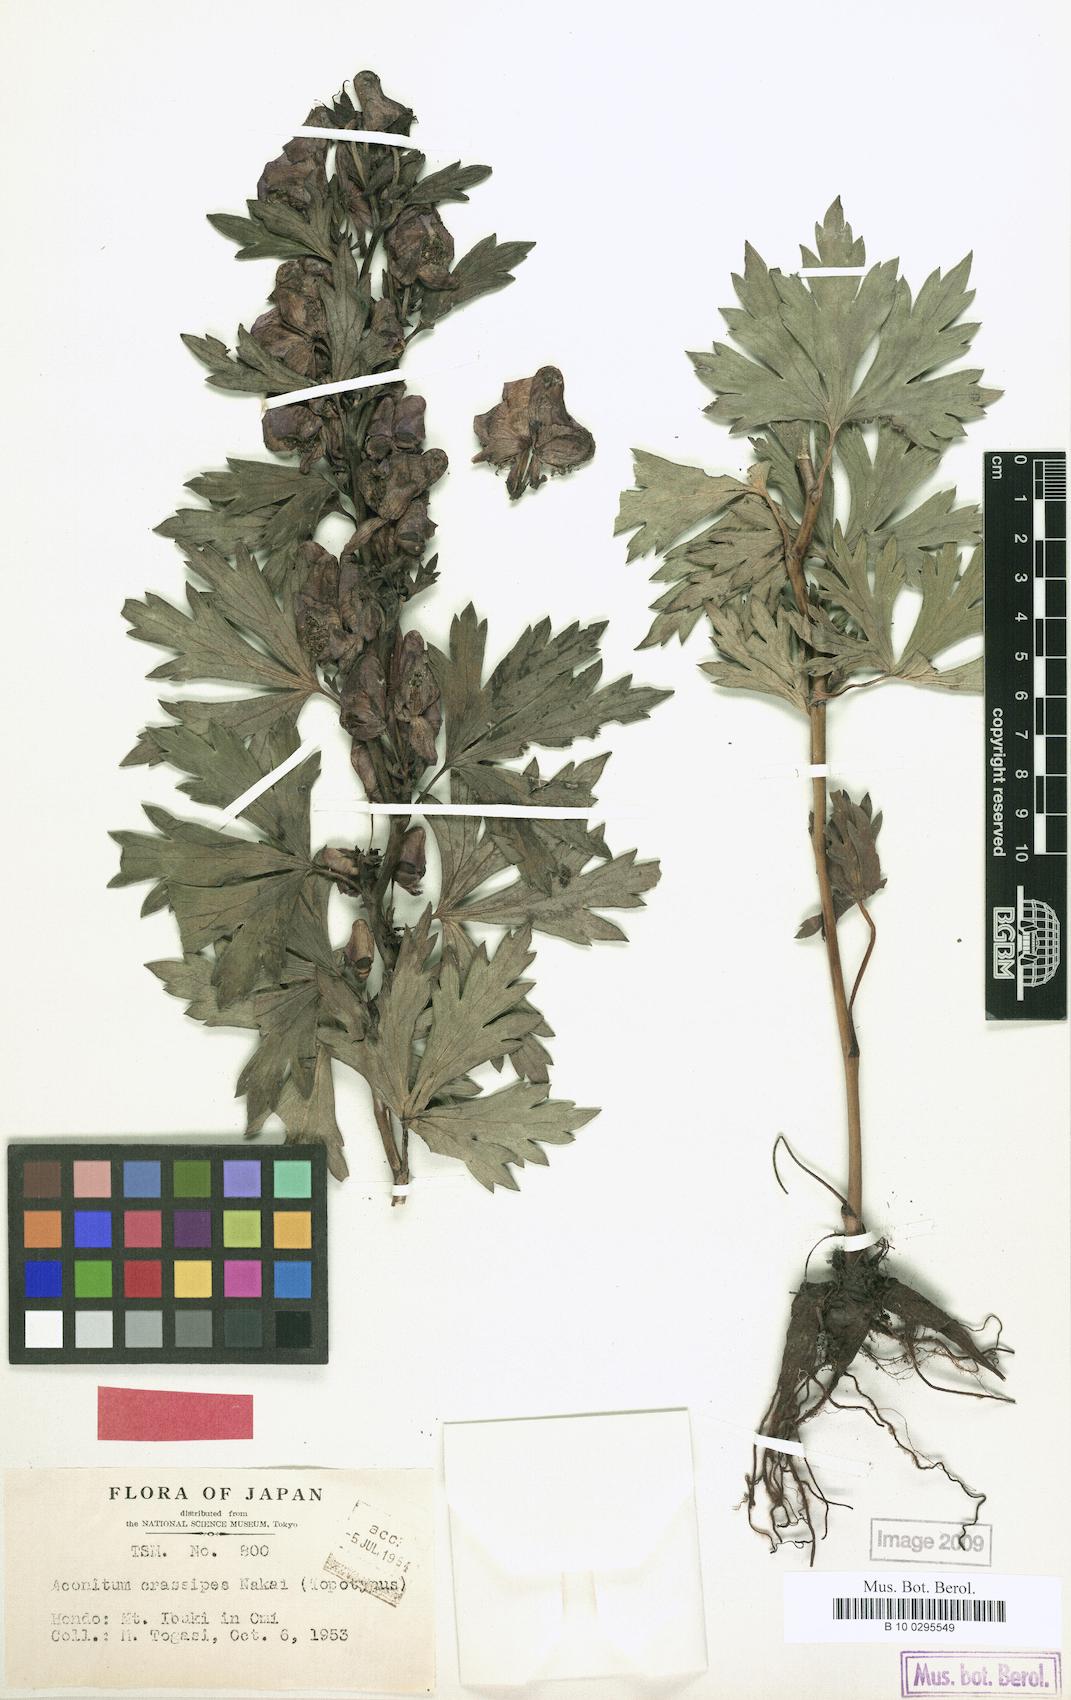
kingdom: Plantae
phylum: Tracheophyta
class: Magnoliopsida
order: Ranunculales
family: Ranunculaceae
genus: Aconitum
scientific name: Aconitum zigzag
